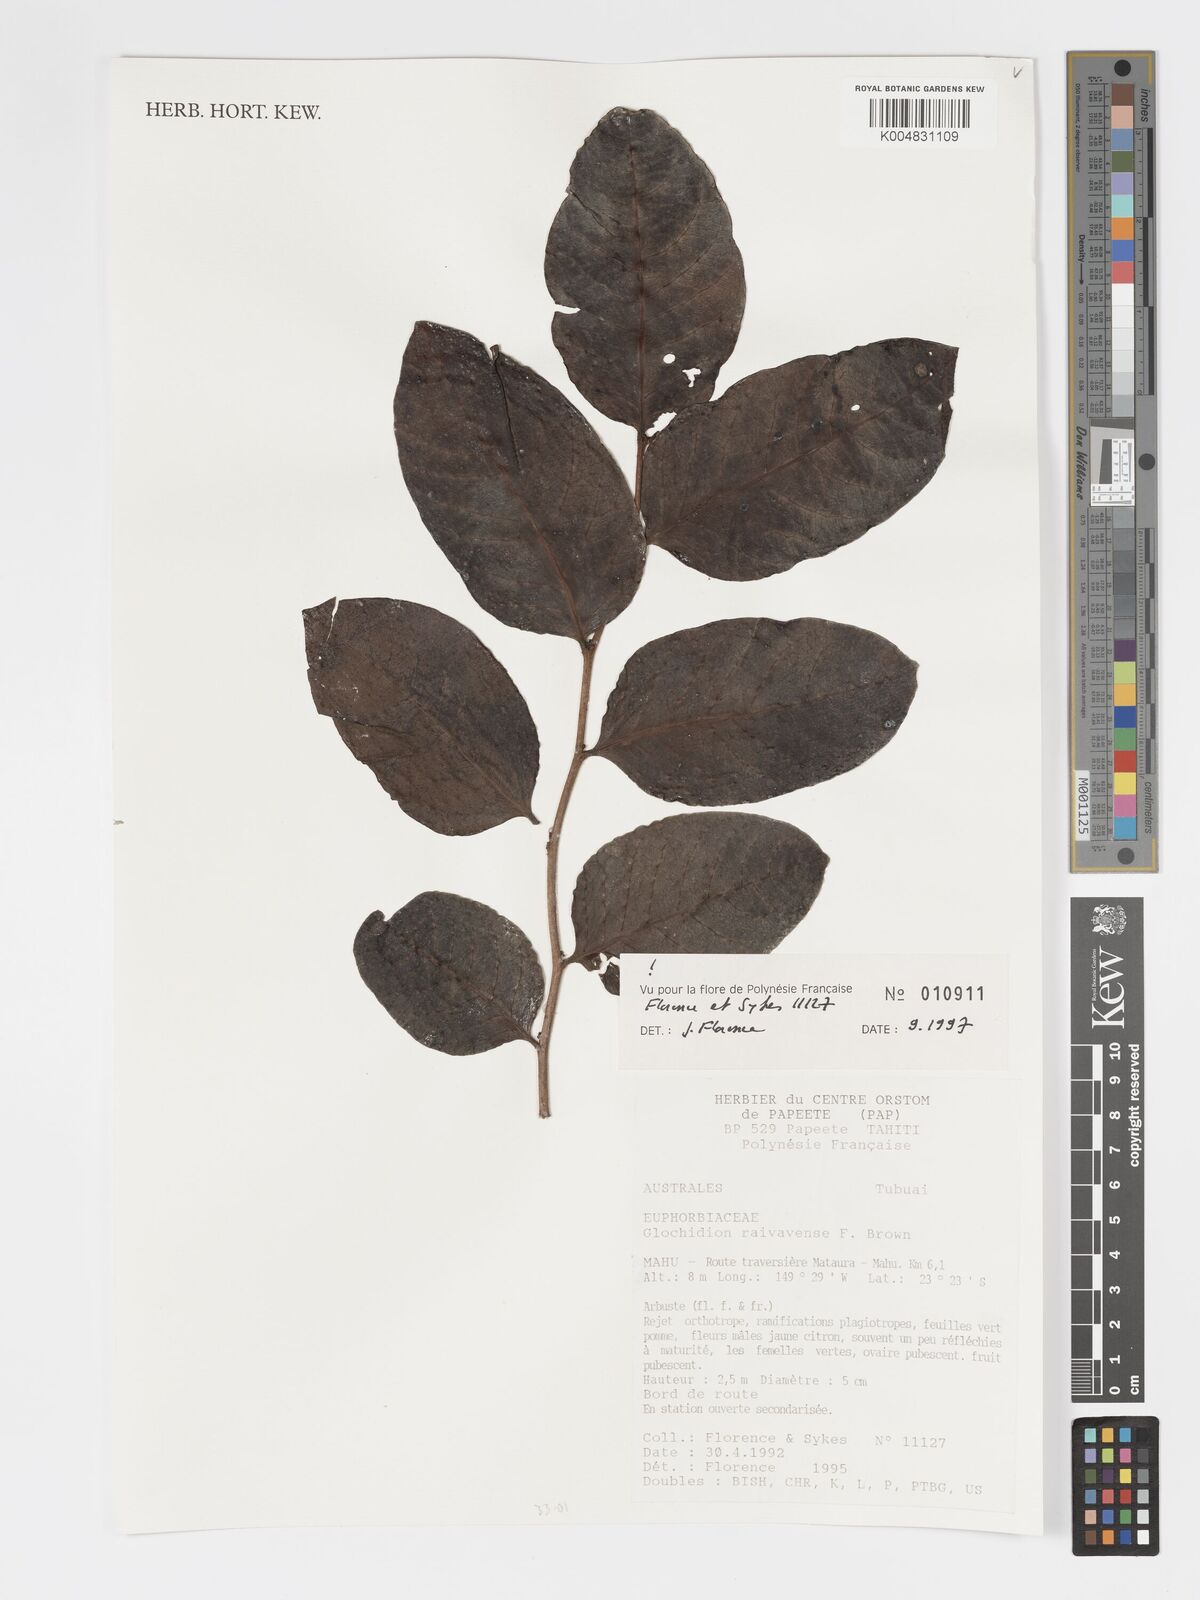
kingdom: Plantae
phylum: Tracheophyta
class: Magnoliopsida
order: Malpighiales
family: Phyllanthaceae
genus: Glochidion
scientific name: Glochidion raivavense
